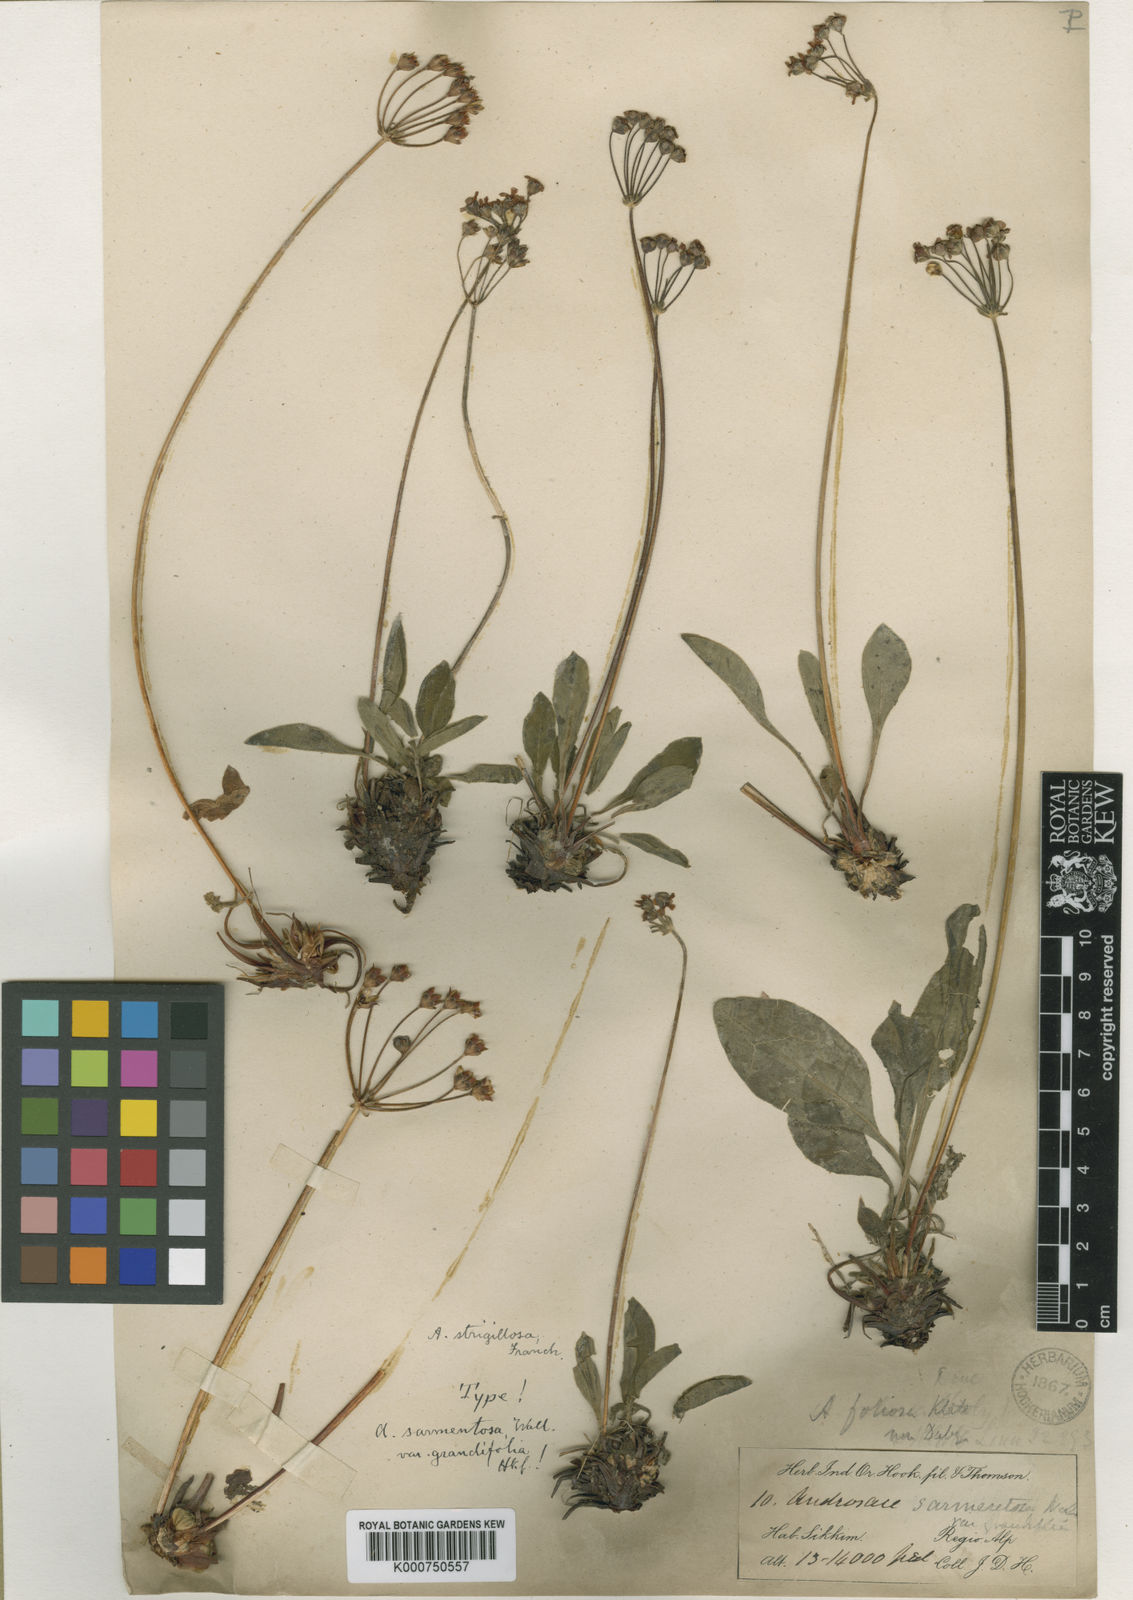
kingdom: Plantae
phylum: Tracheophyta
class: Magnoliopsida
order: Ericales
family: Primulaceae
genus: Androsace
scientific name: Androsace strigillosa
